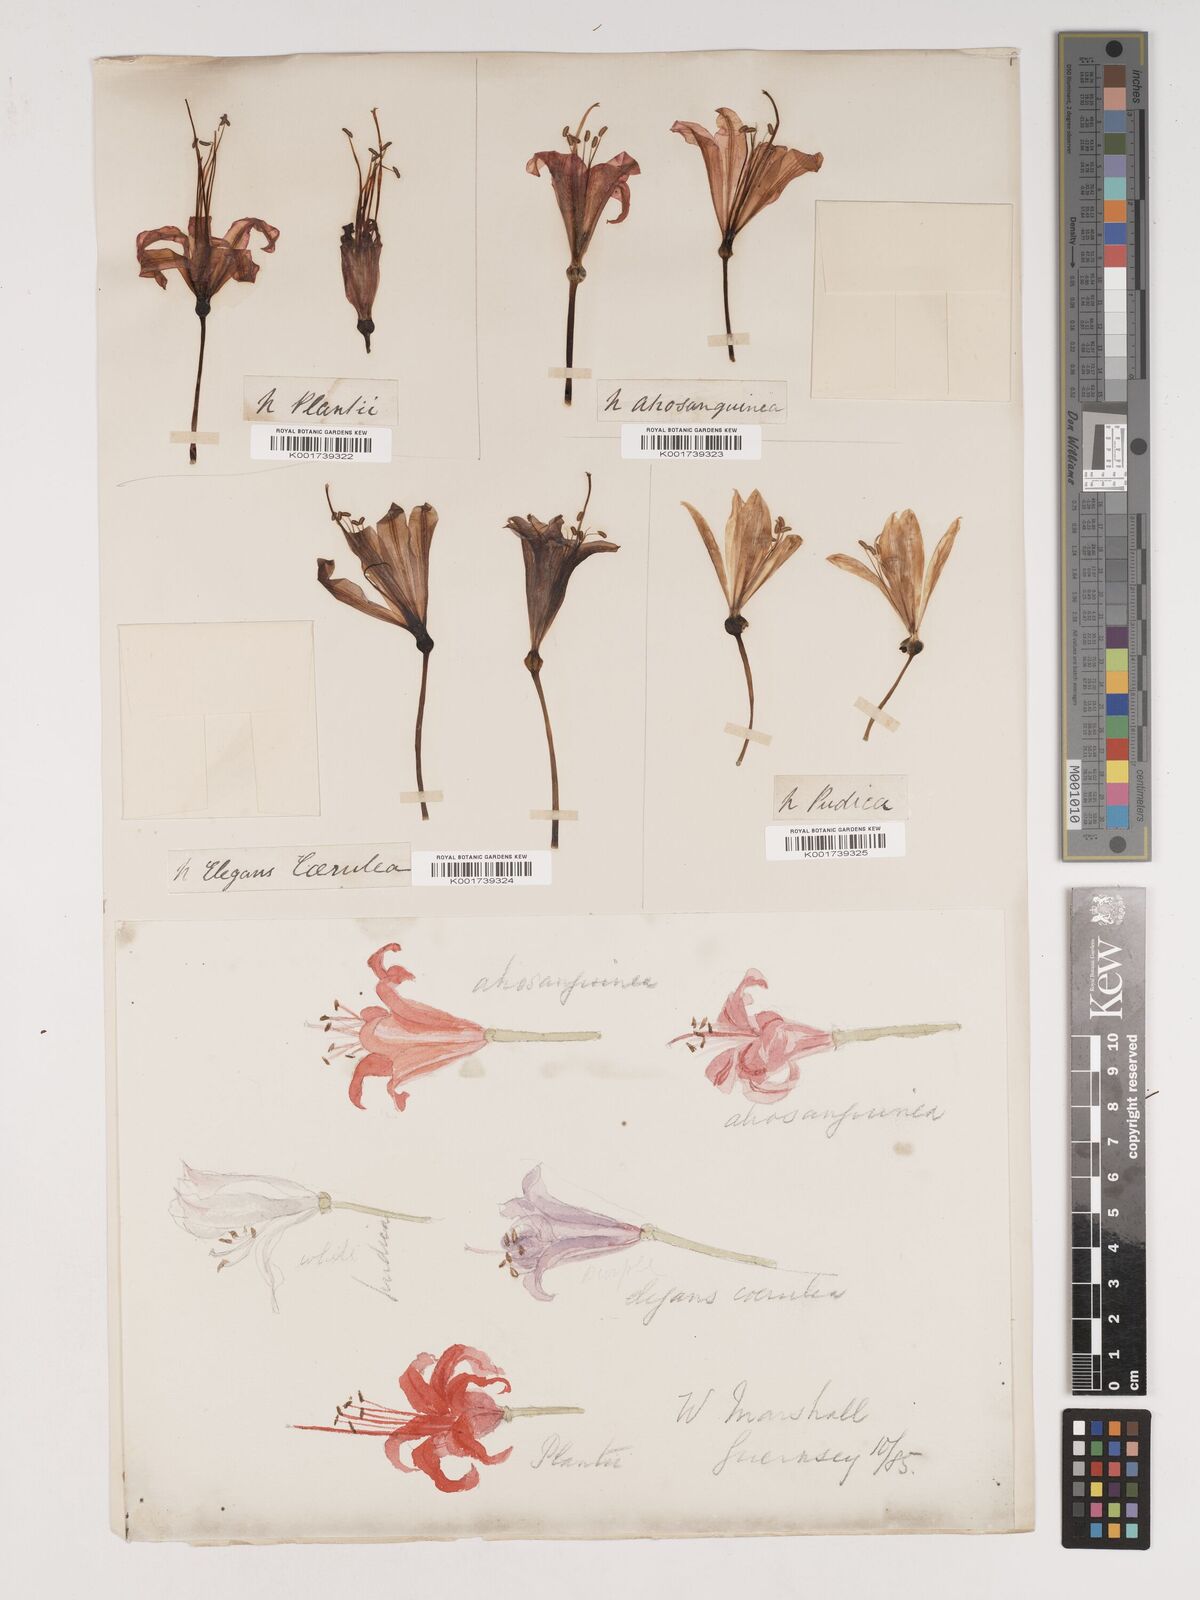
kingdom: Plantae
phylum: Tracheophyta
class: Liliopsida
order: Asparagales
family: Amaryllidaceae
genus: Nerine
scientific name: Nerine sarniensis
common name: Guernsey-lily
